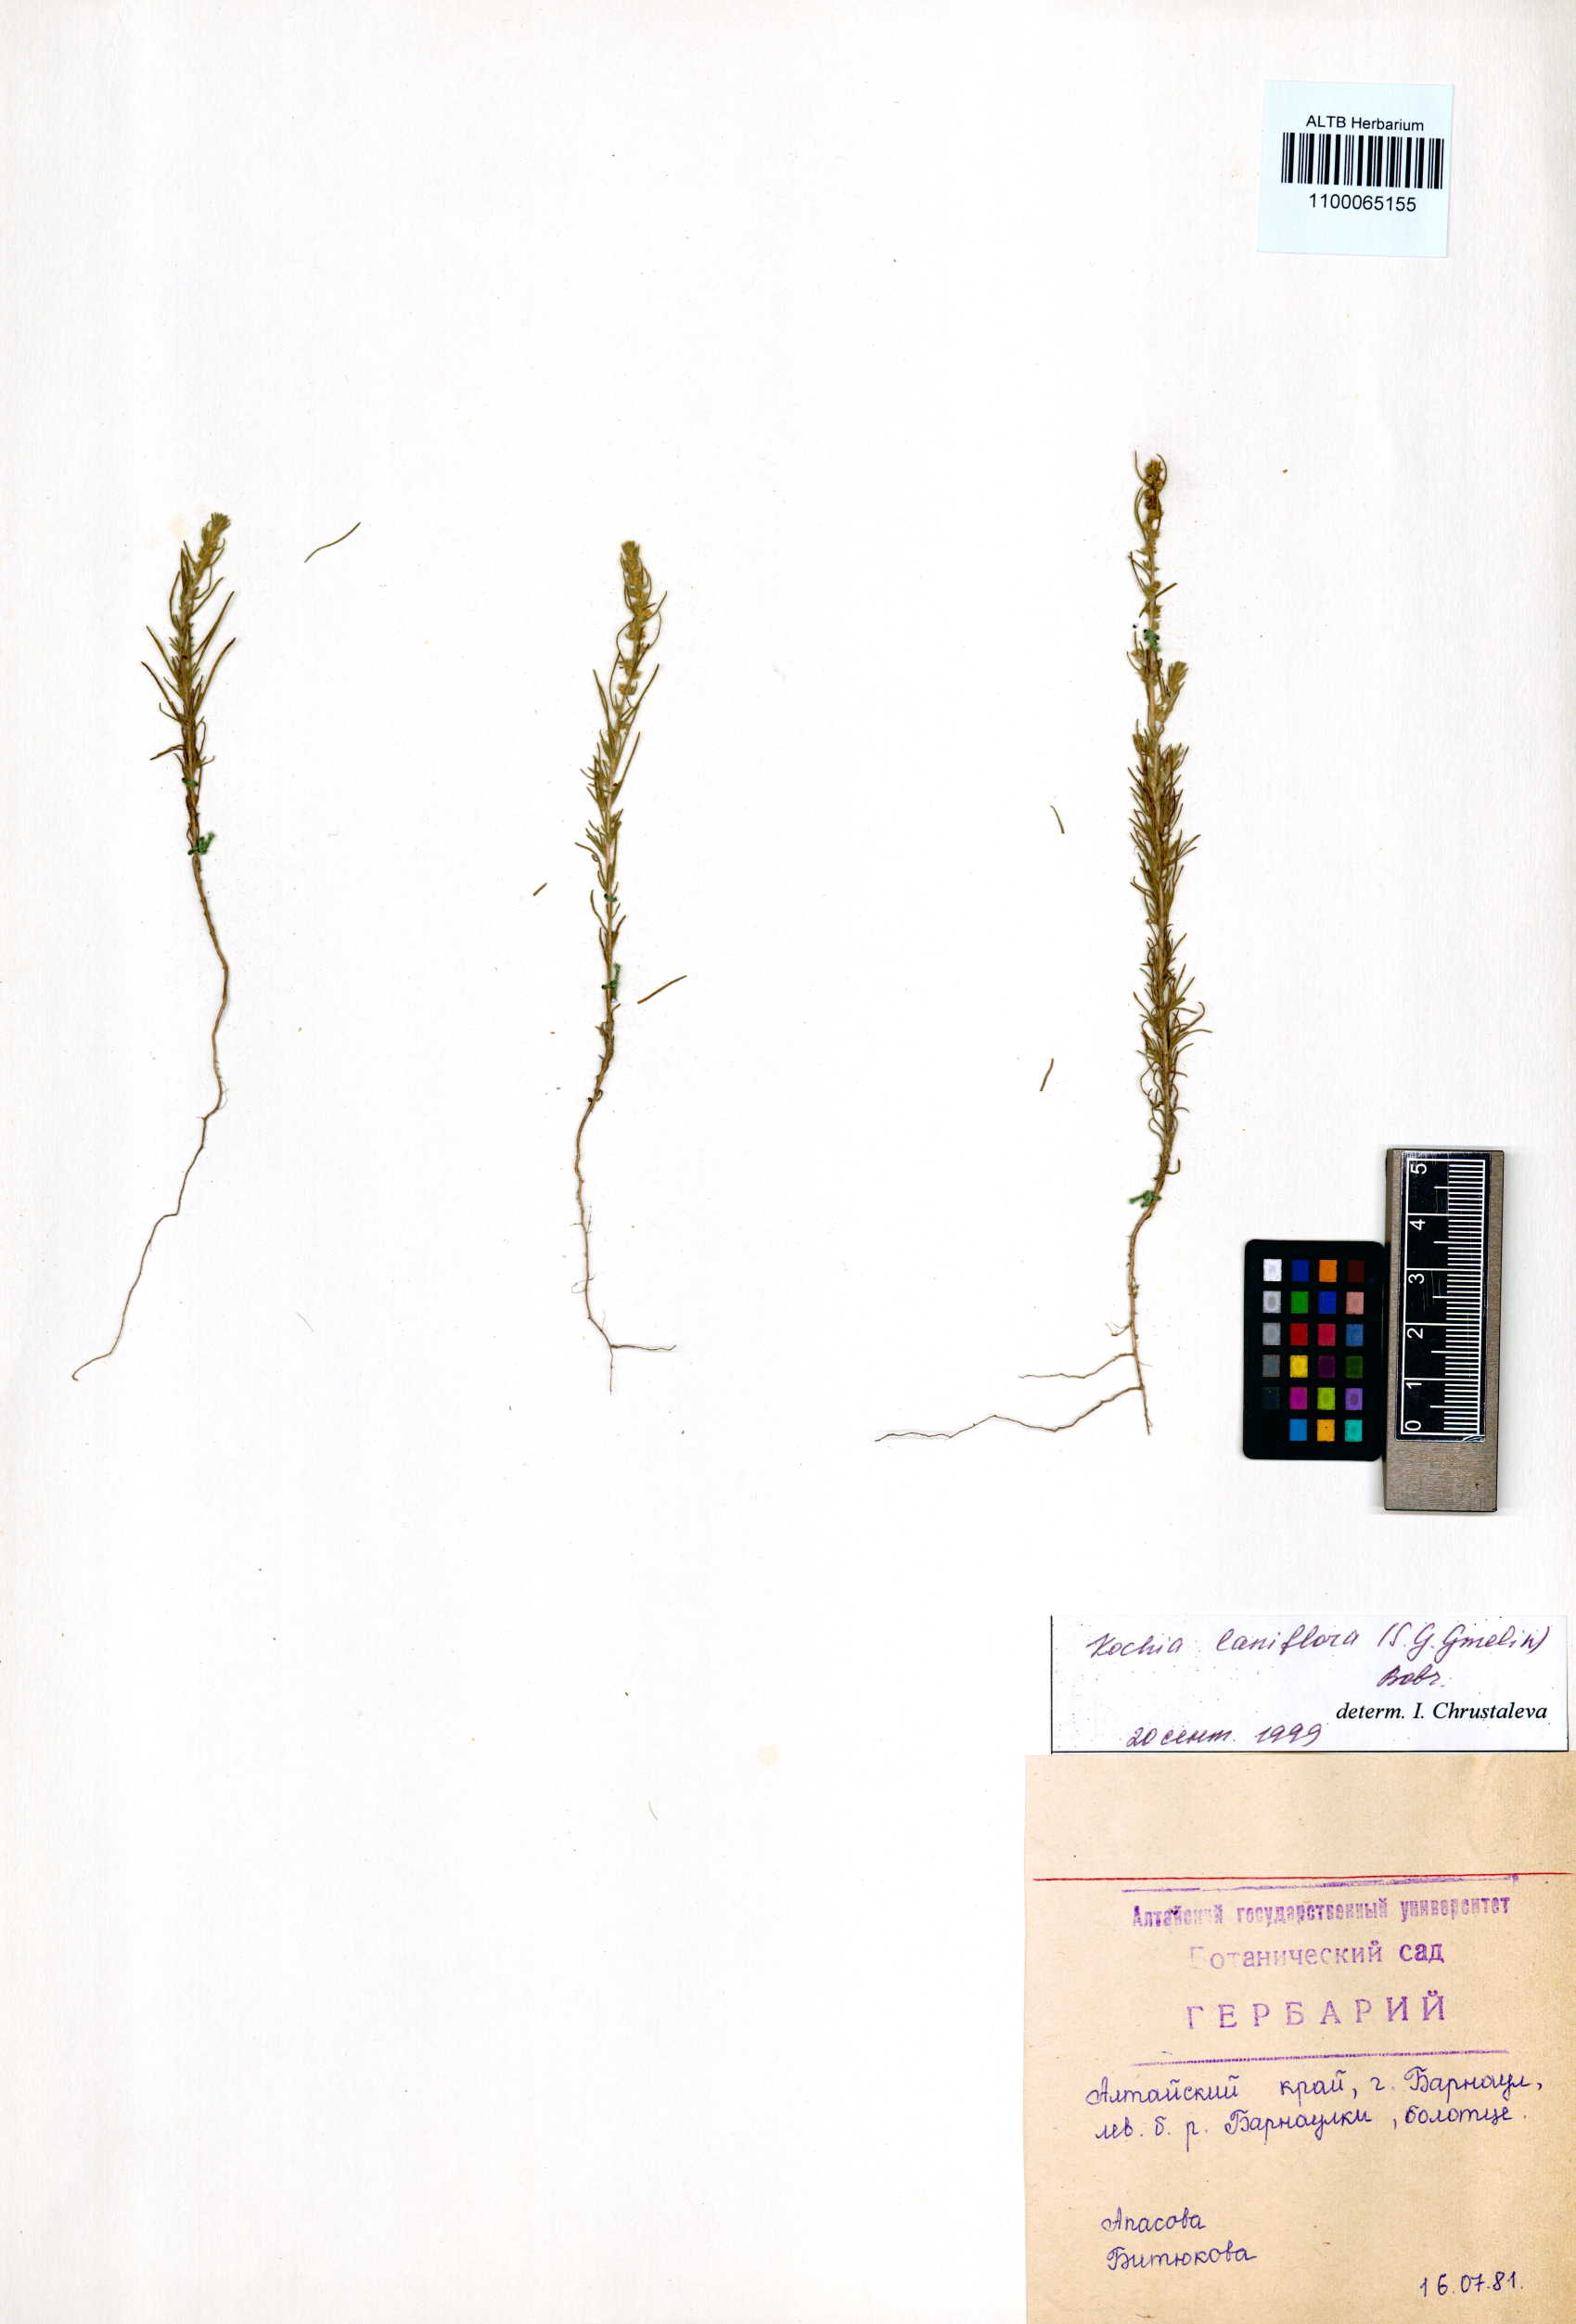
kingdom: Plantae
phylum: Tracheophyta
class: Magnoliopsida
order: Caryophyllales
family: Amaranthaceae
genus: Bassia
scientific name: Bassia laniflora
